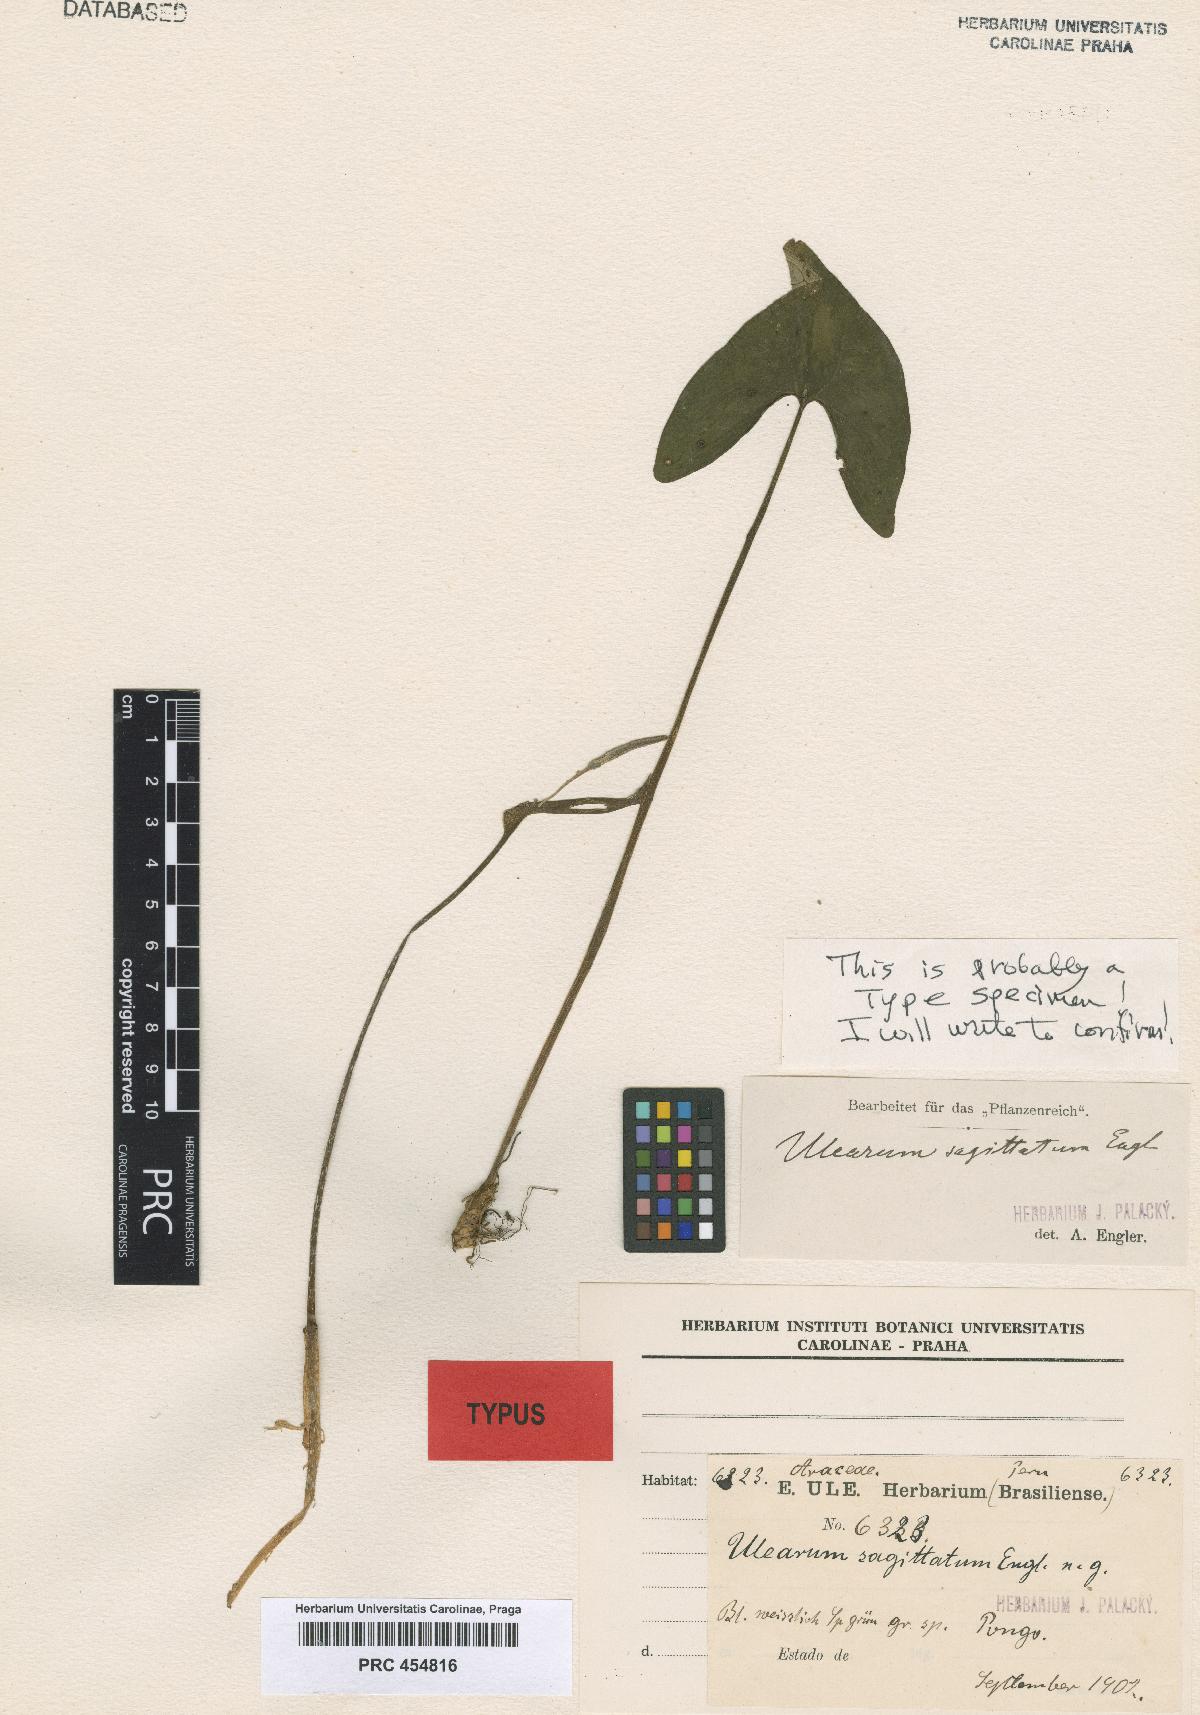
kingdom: Plantae
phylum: Tracheophyta
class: Liliopsida
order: Alismatales
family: Araceae
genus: Ulearum
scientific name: Ulearum sagittatum
